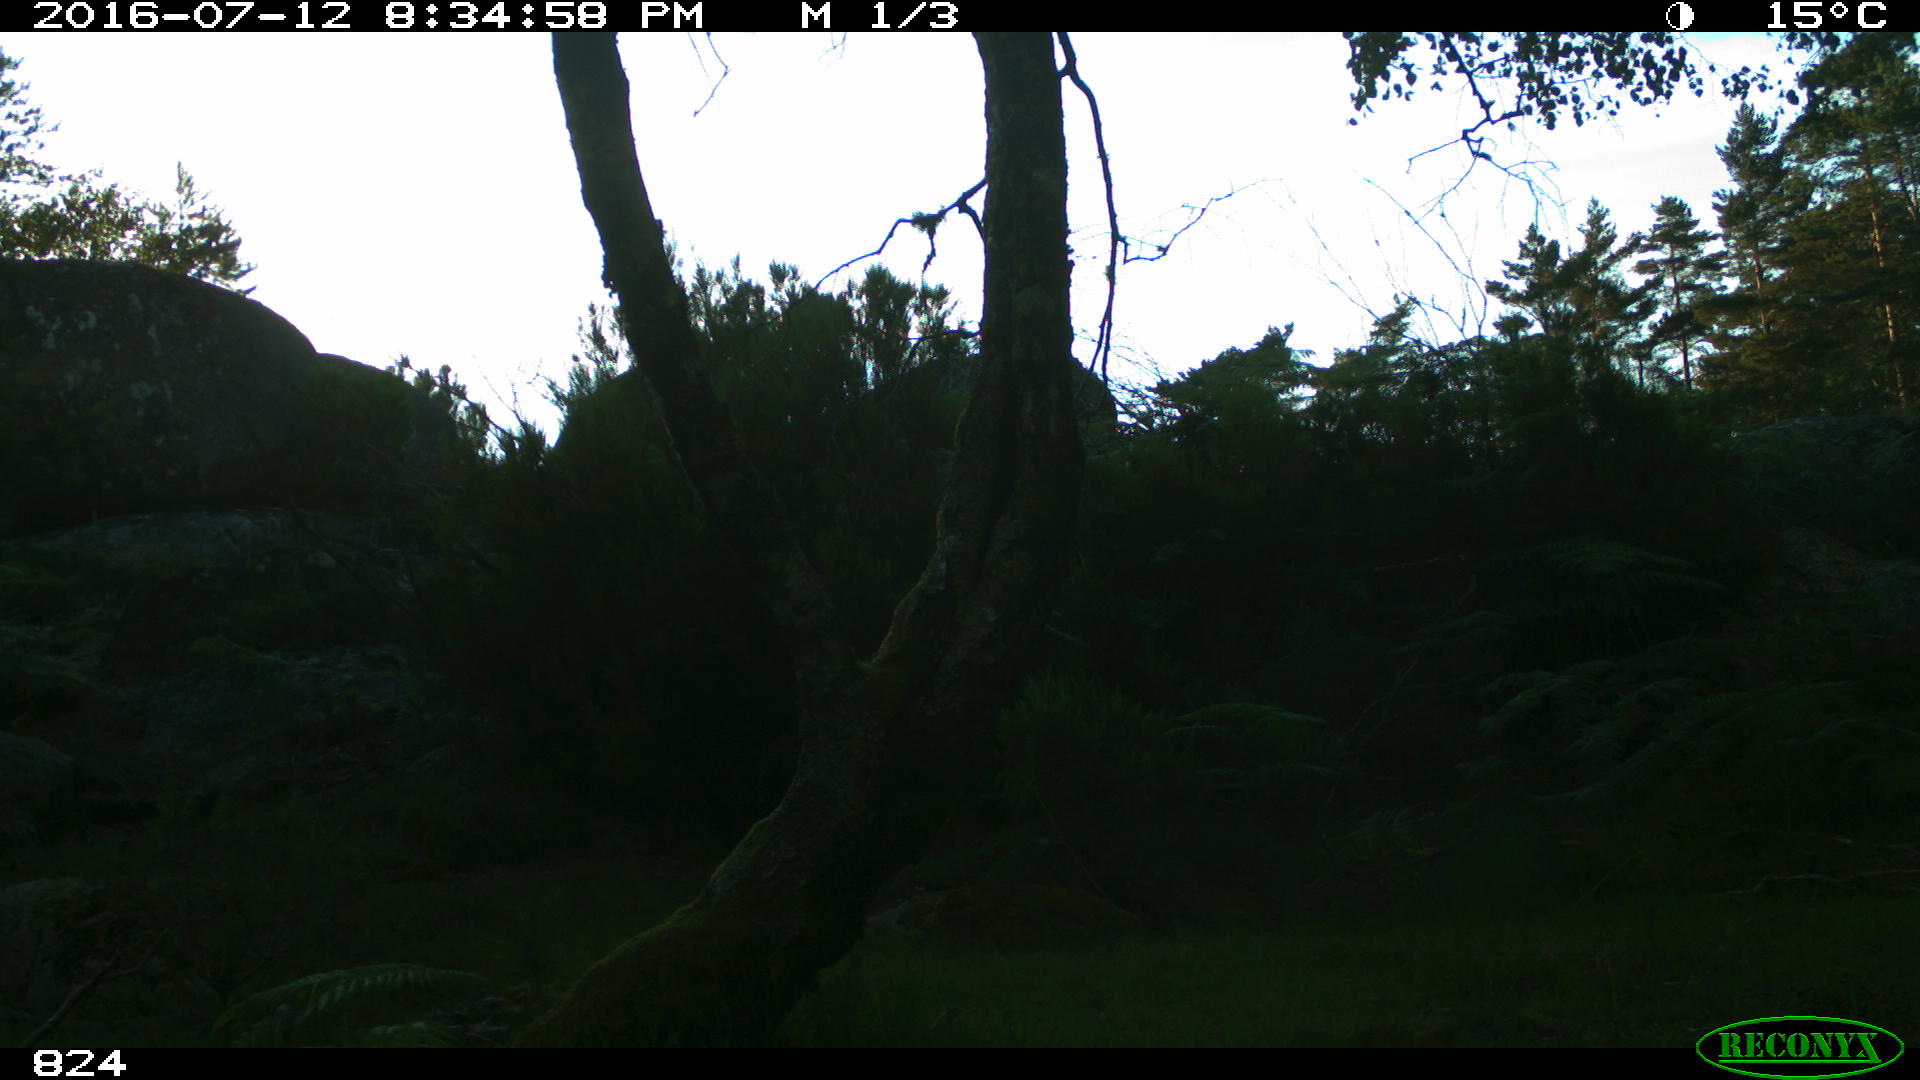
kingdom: Animalia
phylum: Chordata
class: Mammalia
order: Artiodactyla
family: Bovidae
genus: Bos
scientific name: Bos taurus
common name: Domesticated cattle
